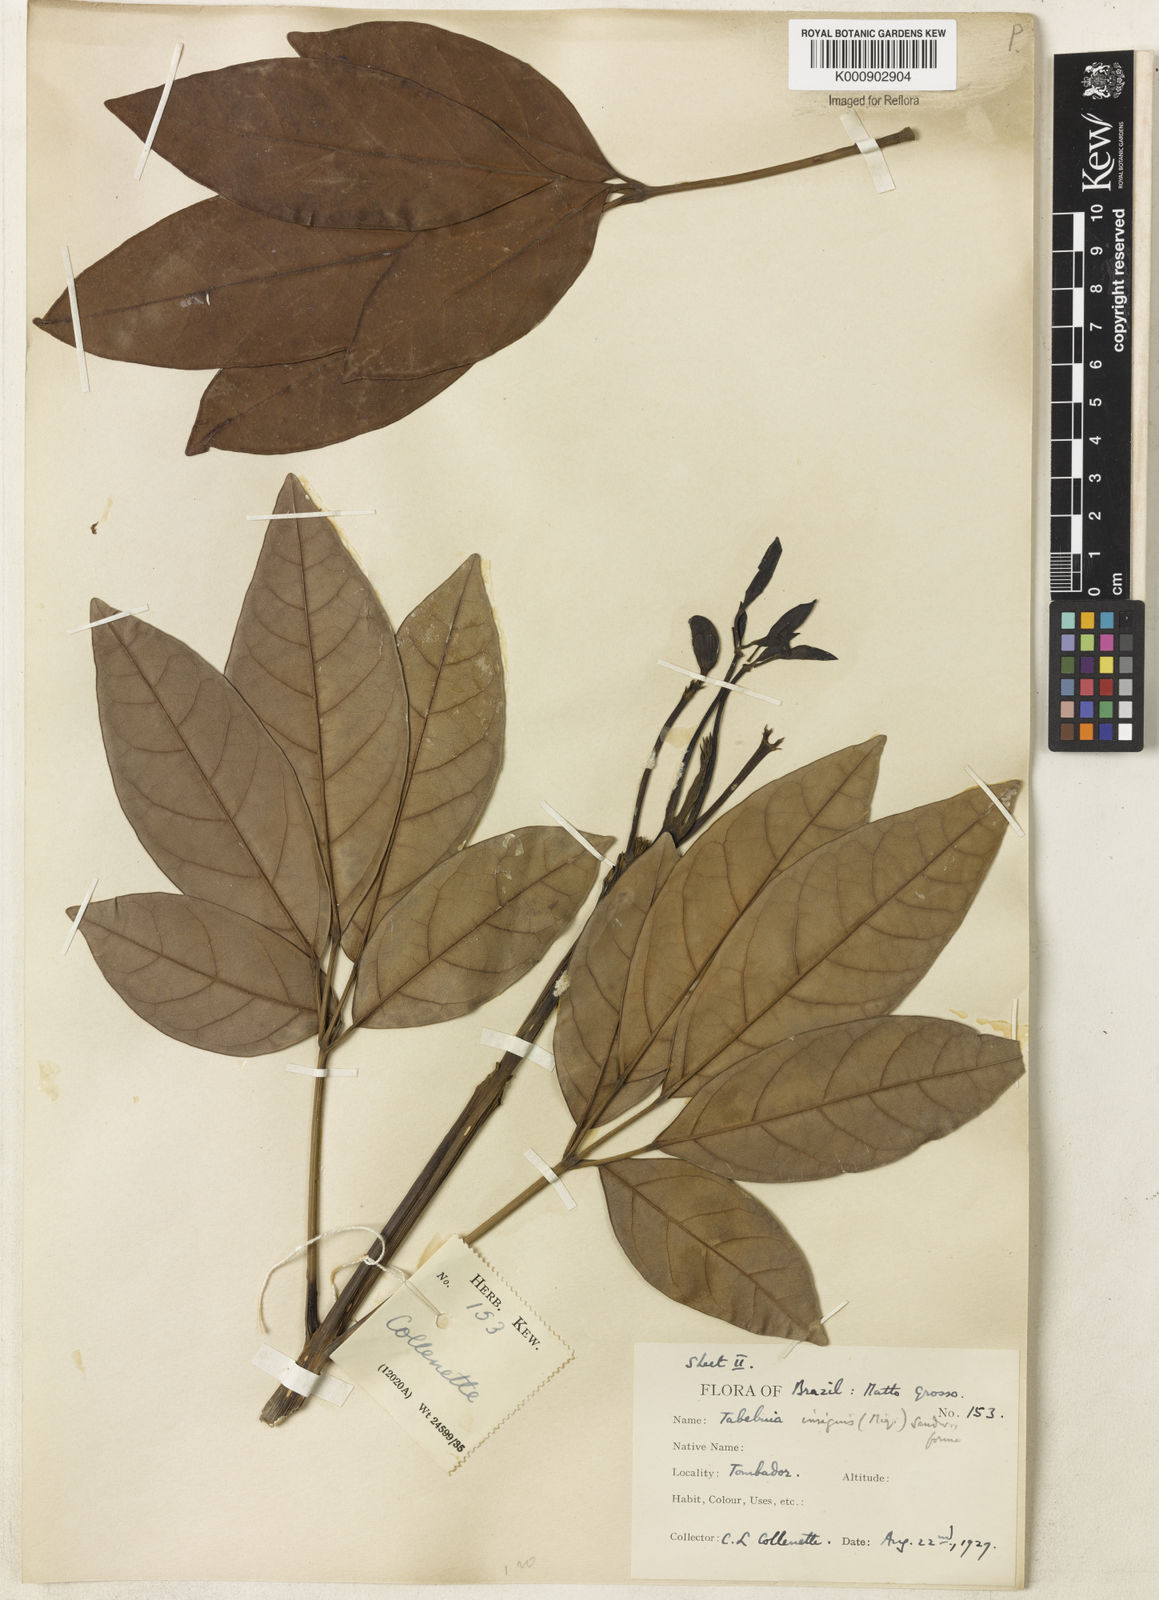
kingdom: Plantae
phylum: Tracheophyta
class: Magnoliopsida
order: Lamiales
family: Bignoniaceae
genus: Tabebuia
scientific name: Tabebuia
